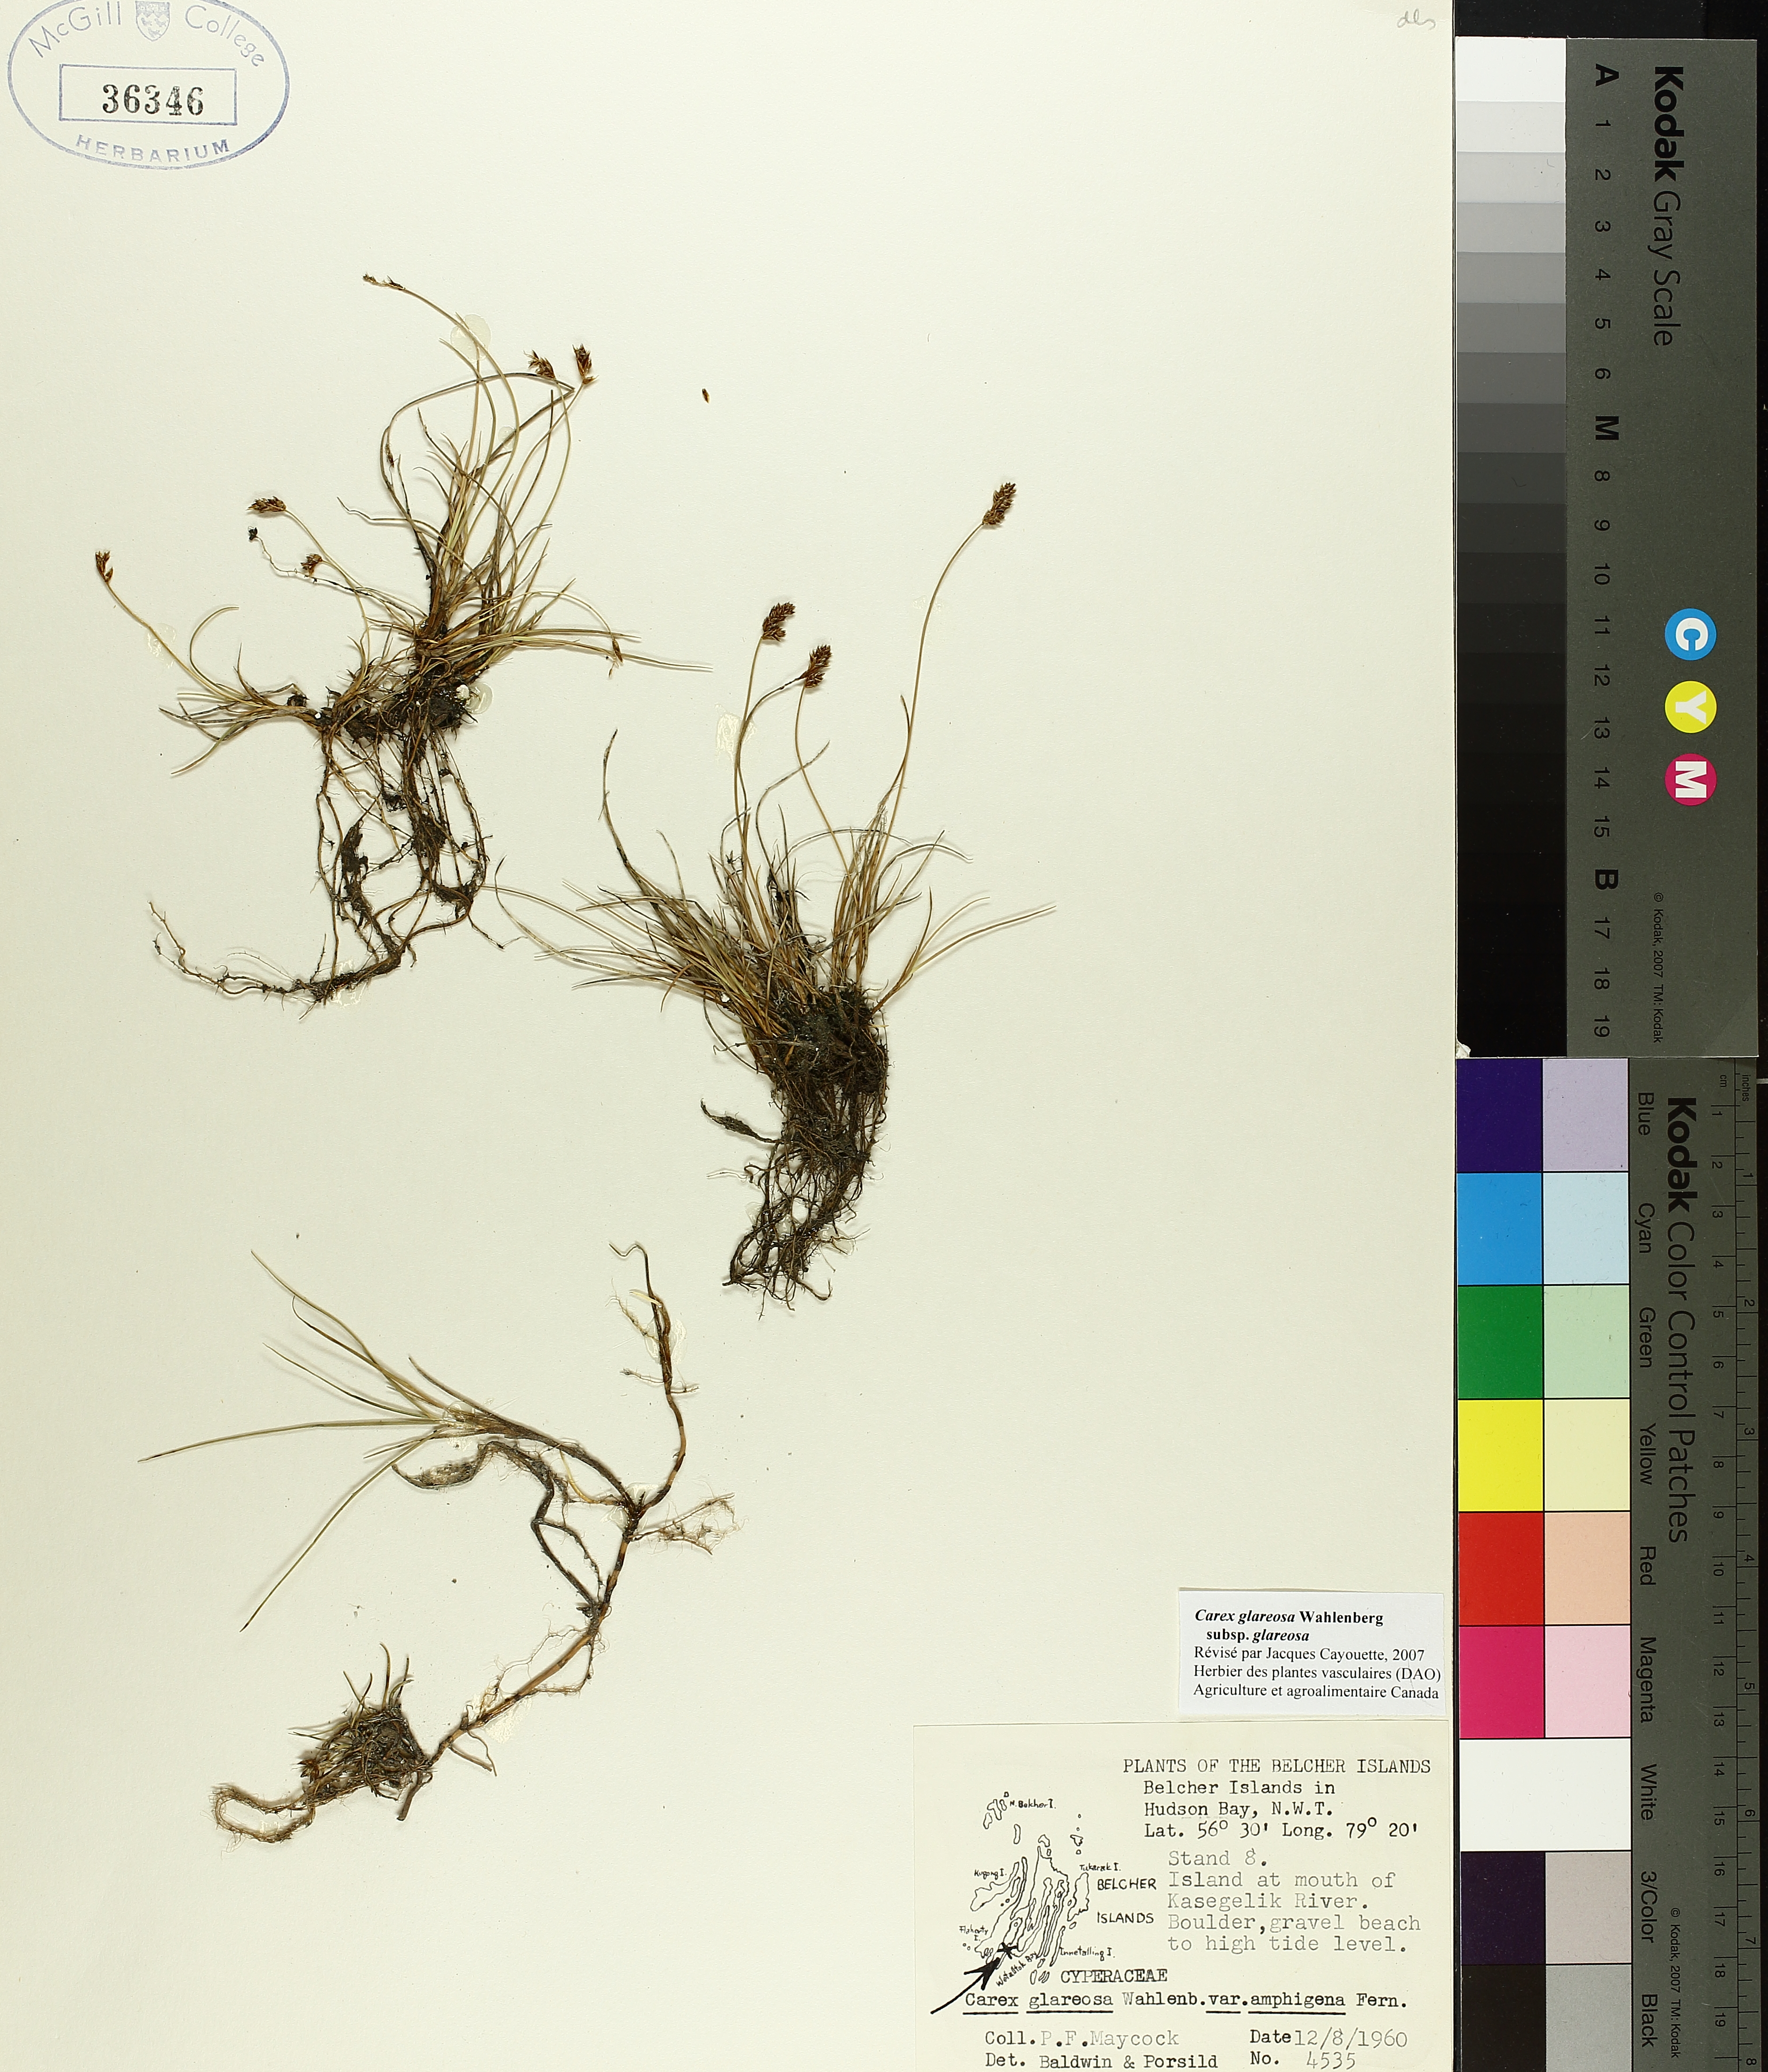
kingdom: Plantae
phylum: Tracheophyta
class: Liliopsida
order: Poales
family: Cyperaceae
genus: Carex
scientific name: Carex glareosa
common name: Clustered sedge
